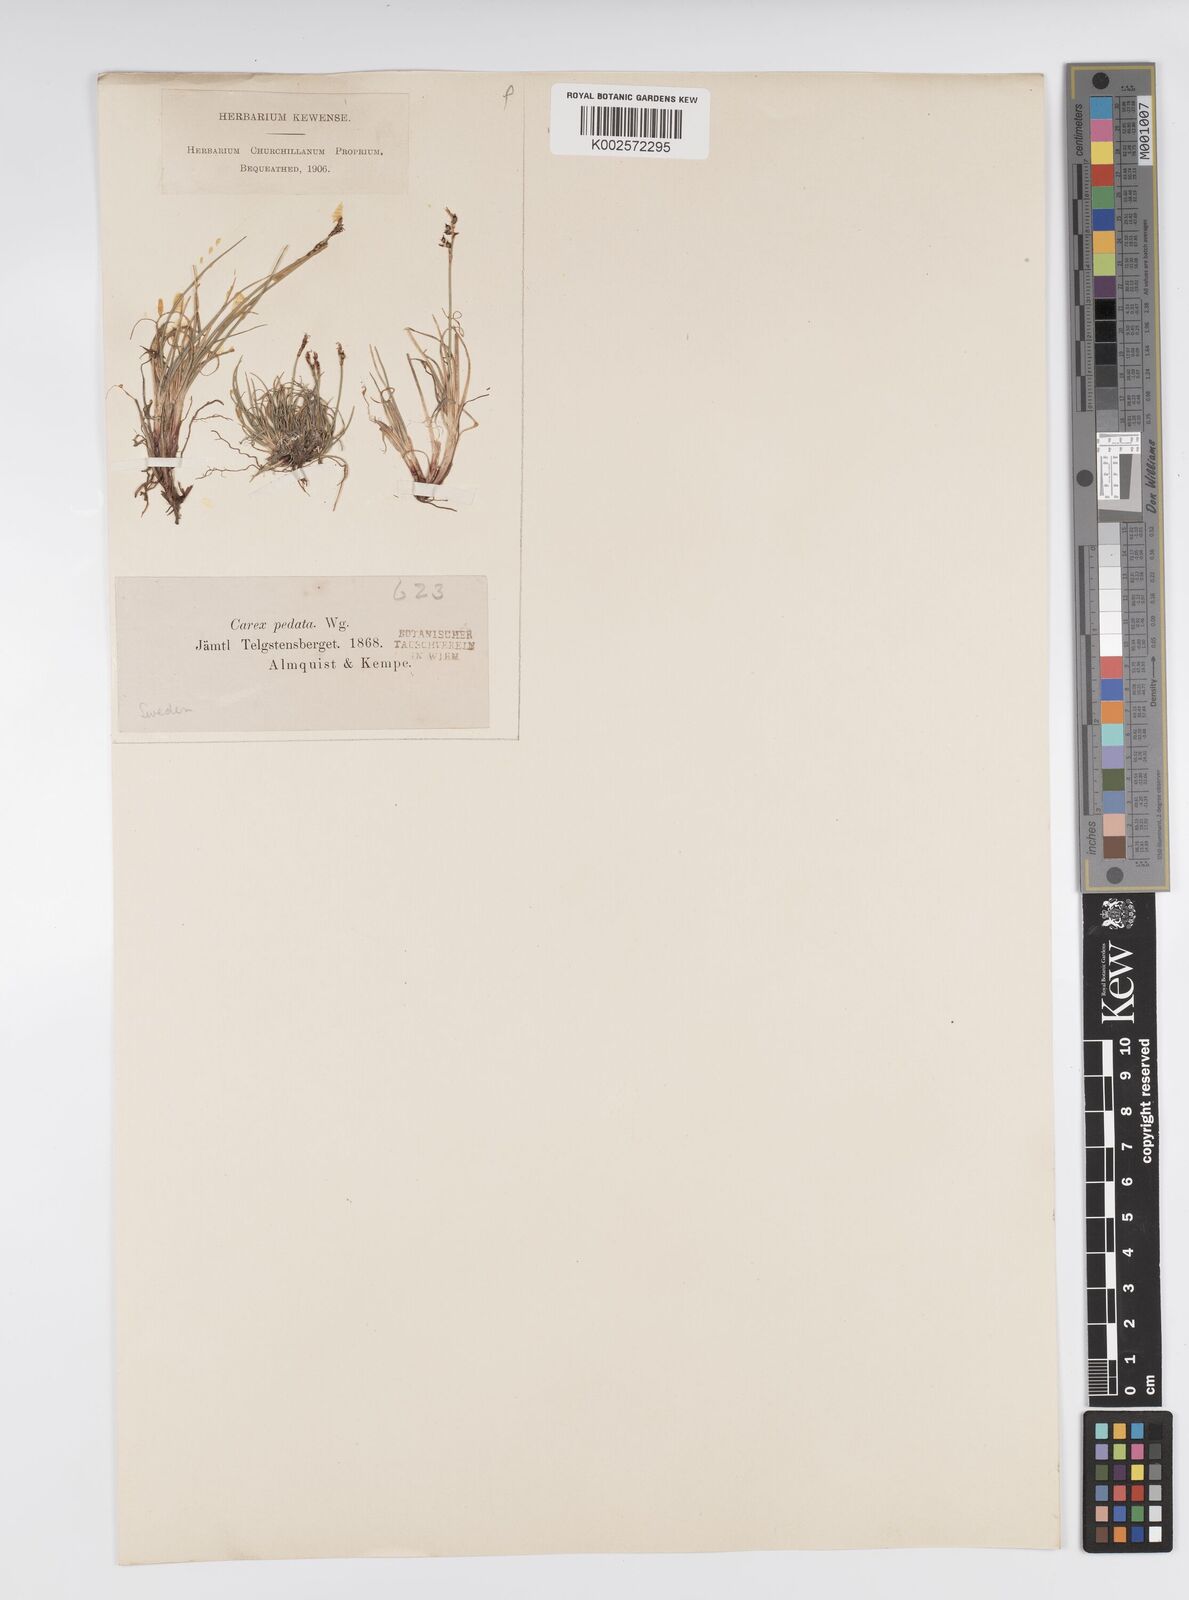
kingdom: Plantae
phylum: Tracheophyta
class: Liliopsida
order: Poales
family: Cyperaceae
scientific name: Cyperaceae
